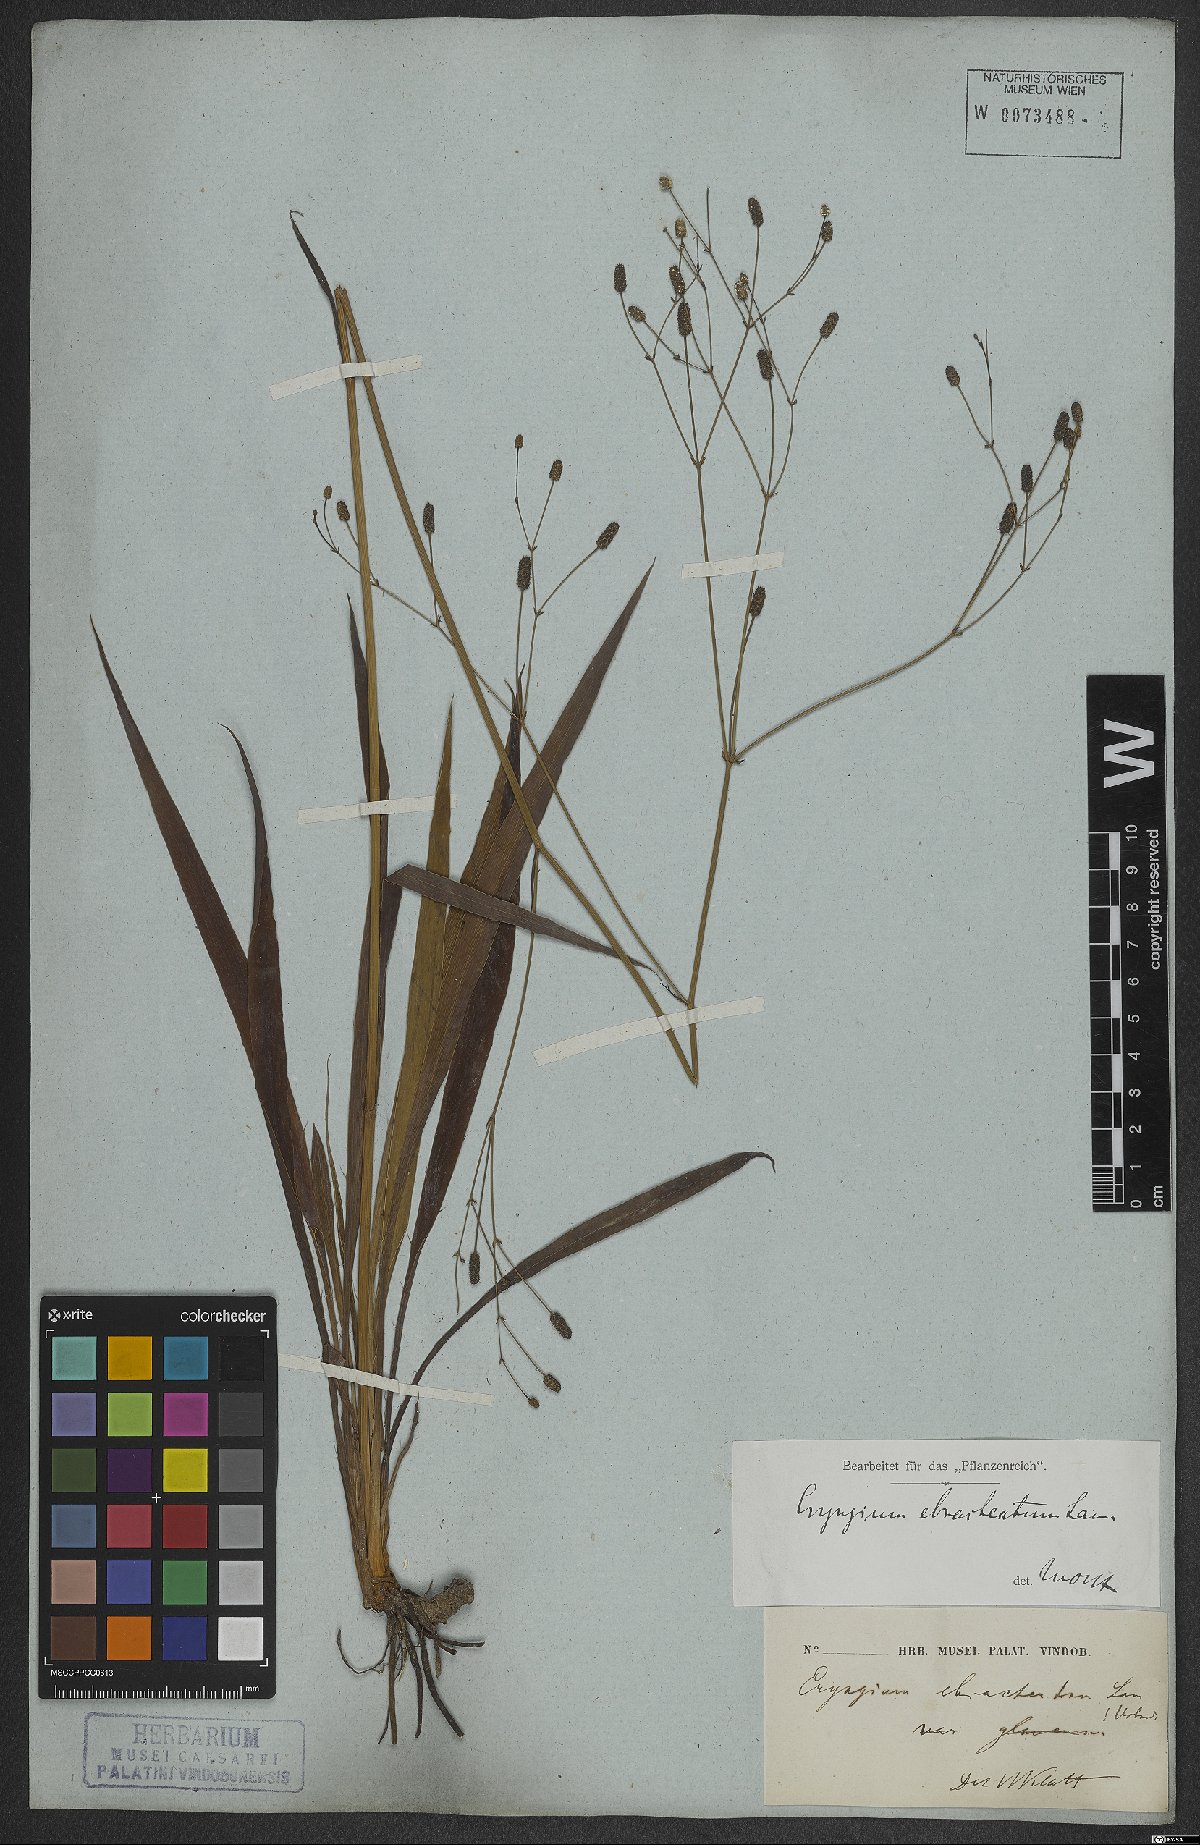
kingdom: Plantae
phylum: Tracheophyta
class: Magnoliopsida
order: Apiales
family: Apiaceae
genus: Eryngium
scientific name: Eryngium ebracteatum
